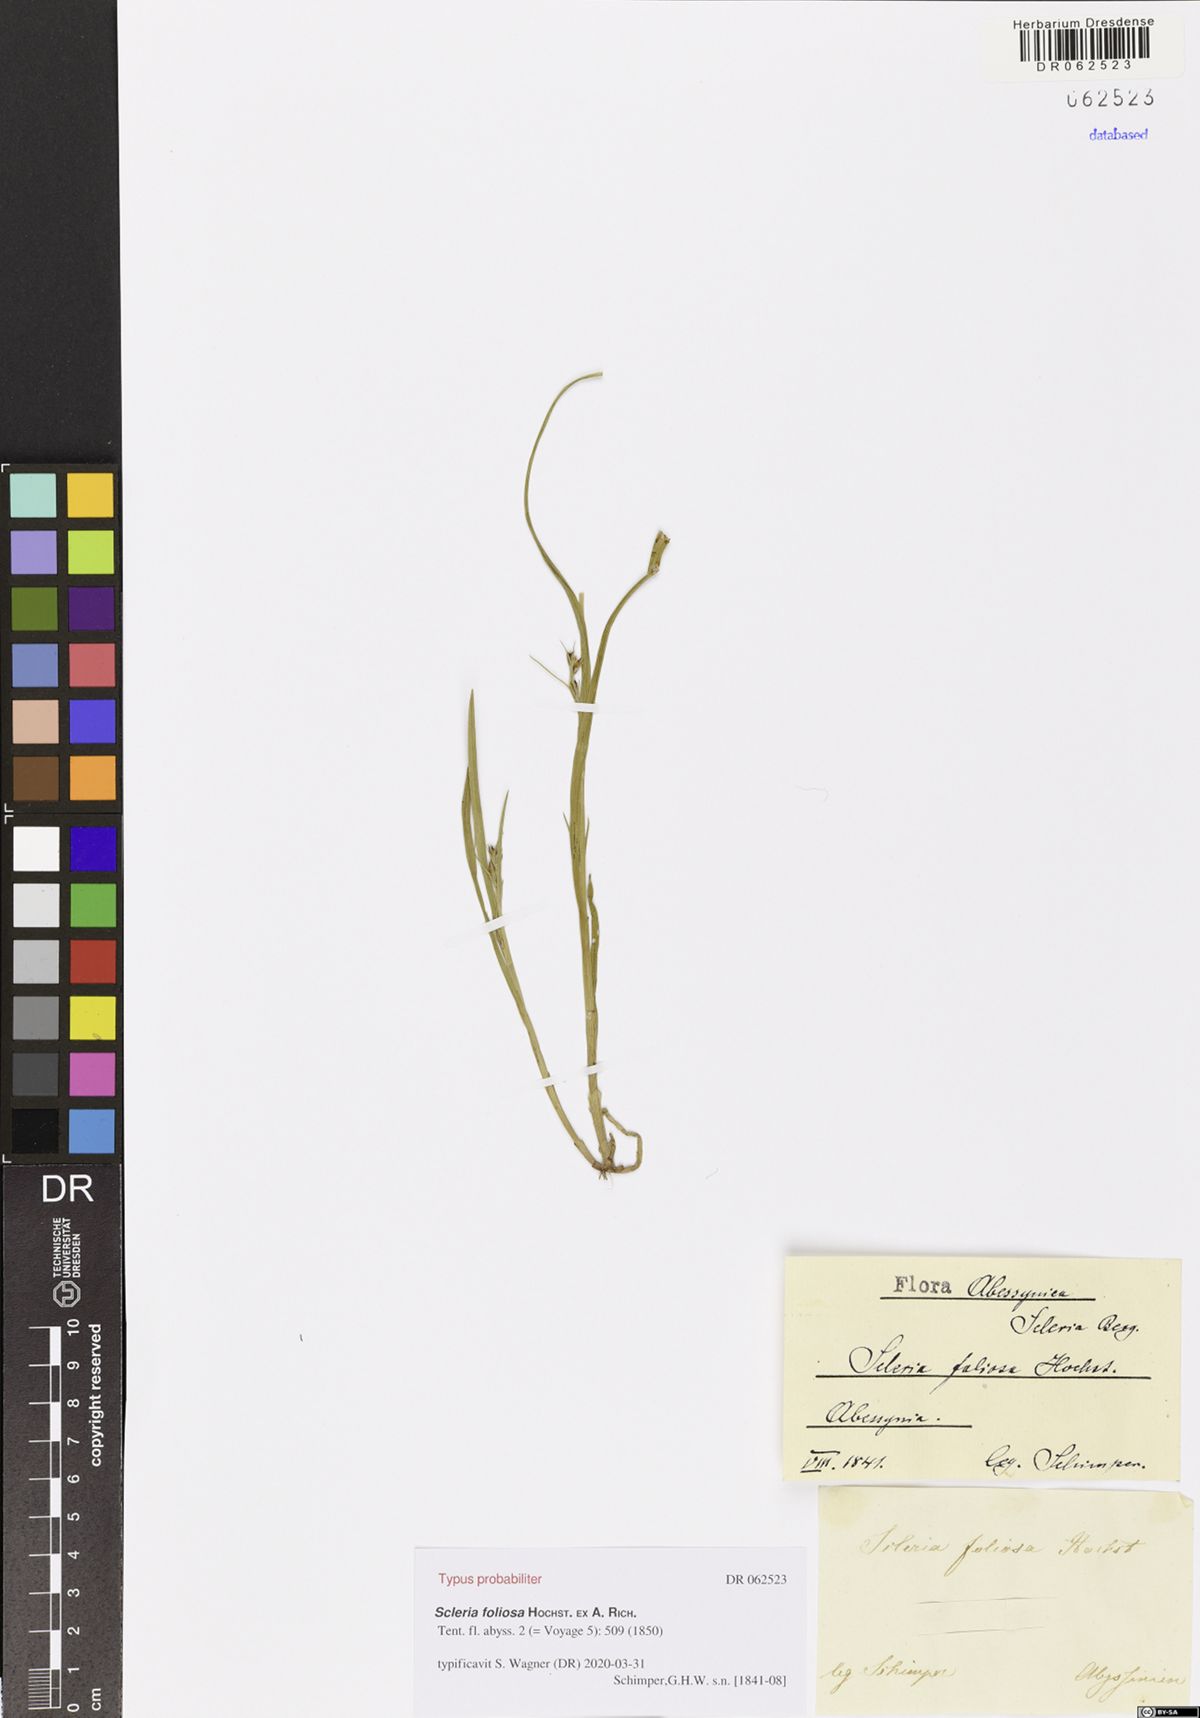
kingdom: Plantae
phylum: Tracheophyta
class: Liliopsida
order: Poales
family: Cyperaceae
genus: Scleria
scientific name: Scleria foliosa
